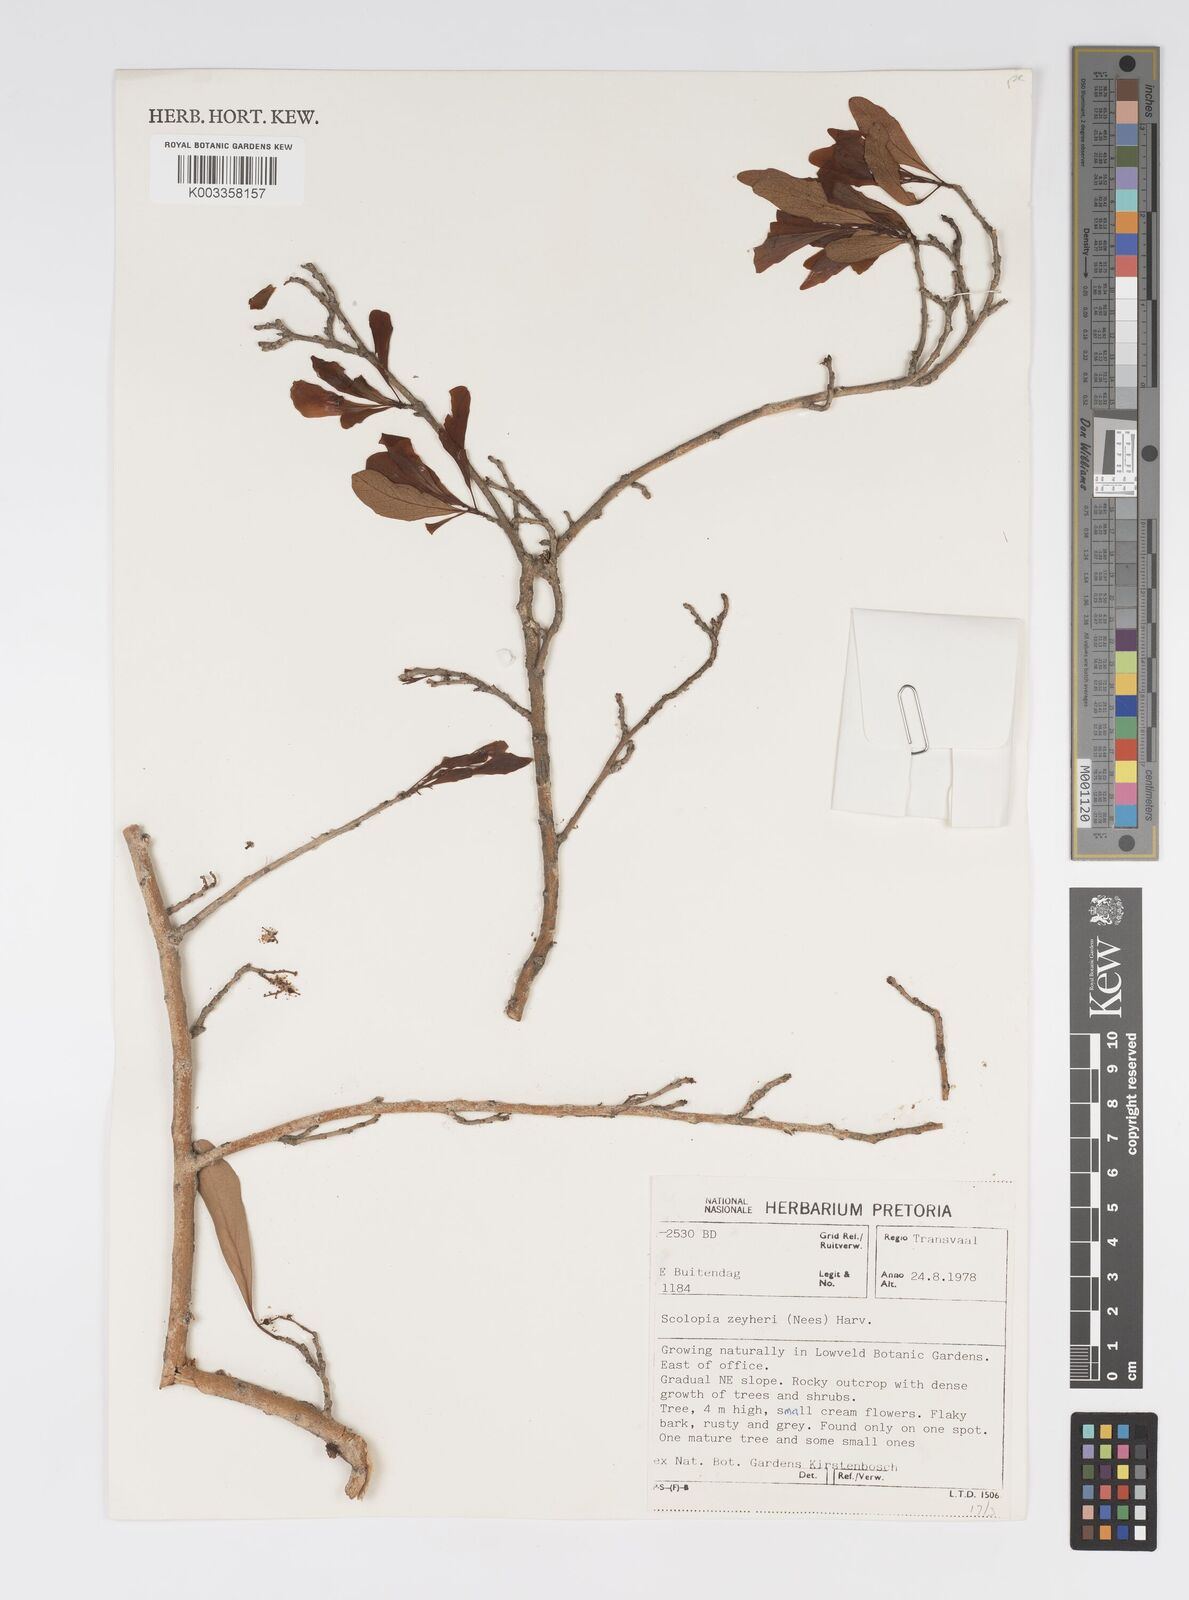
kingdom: Plantae
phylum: Tracheophyta
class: Magnoliopsida
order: Malpighiales
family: Salicaceae
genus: Scolopia
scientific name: Scolopia zeyheri
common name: Thorn pear
